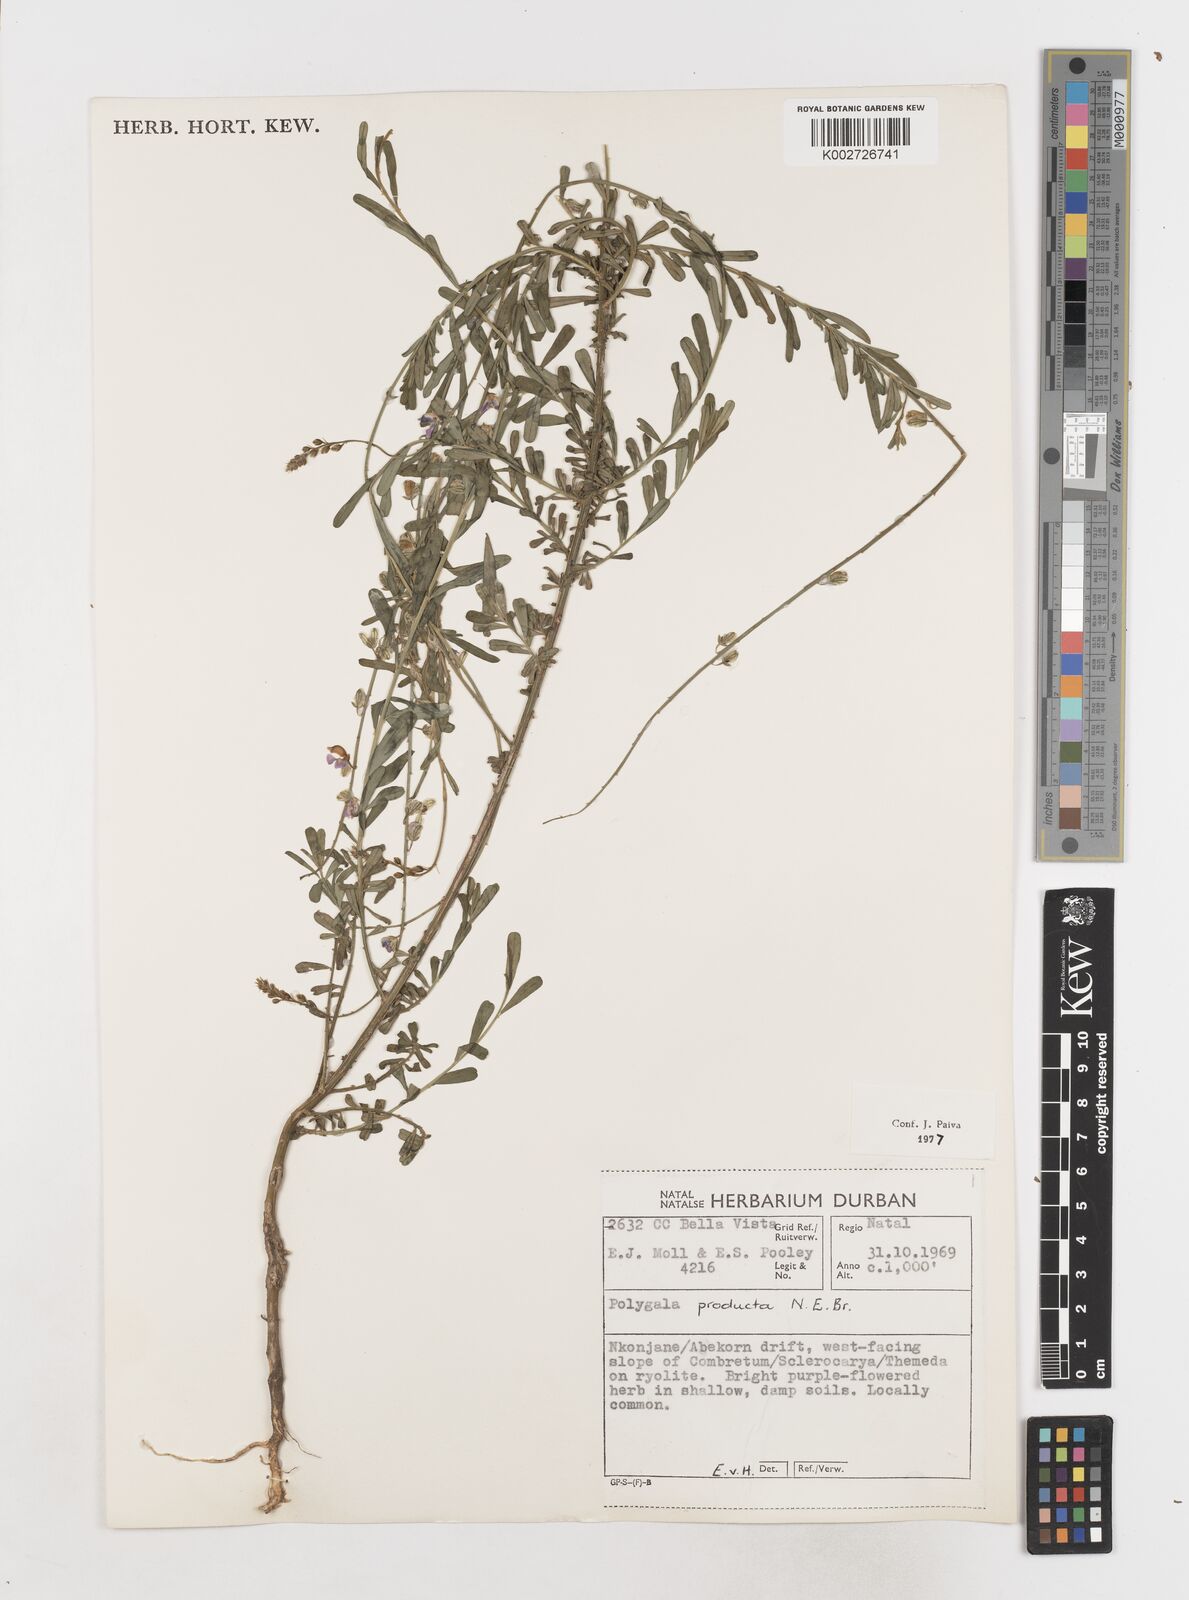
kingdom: Plantae
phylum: Tracheophyta
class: Magnoliopsida
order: Fabales
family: Polygalaceae
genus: Polygala
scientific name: Polygala producta
